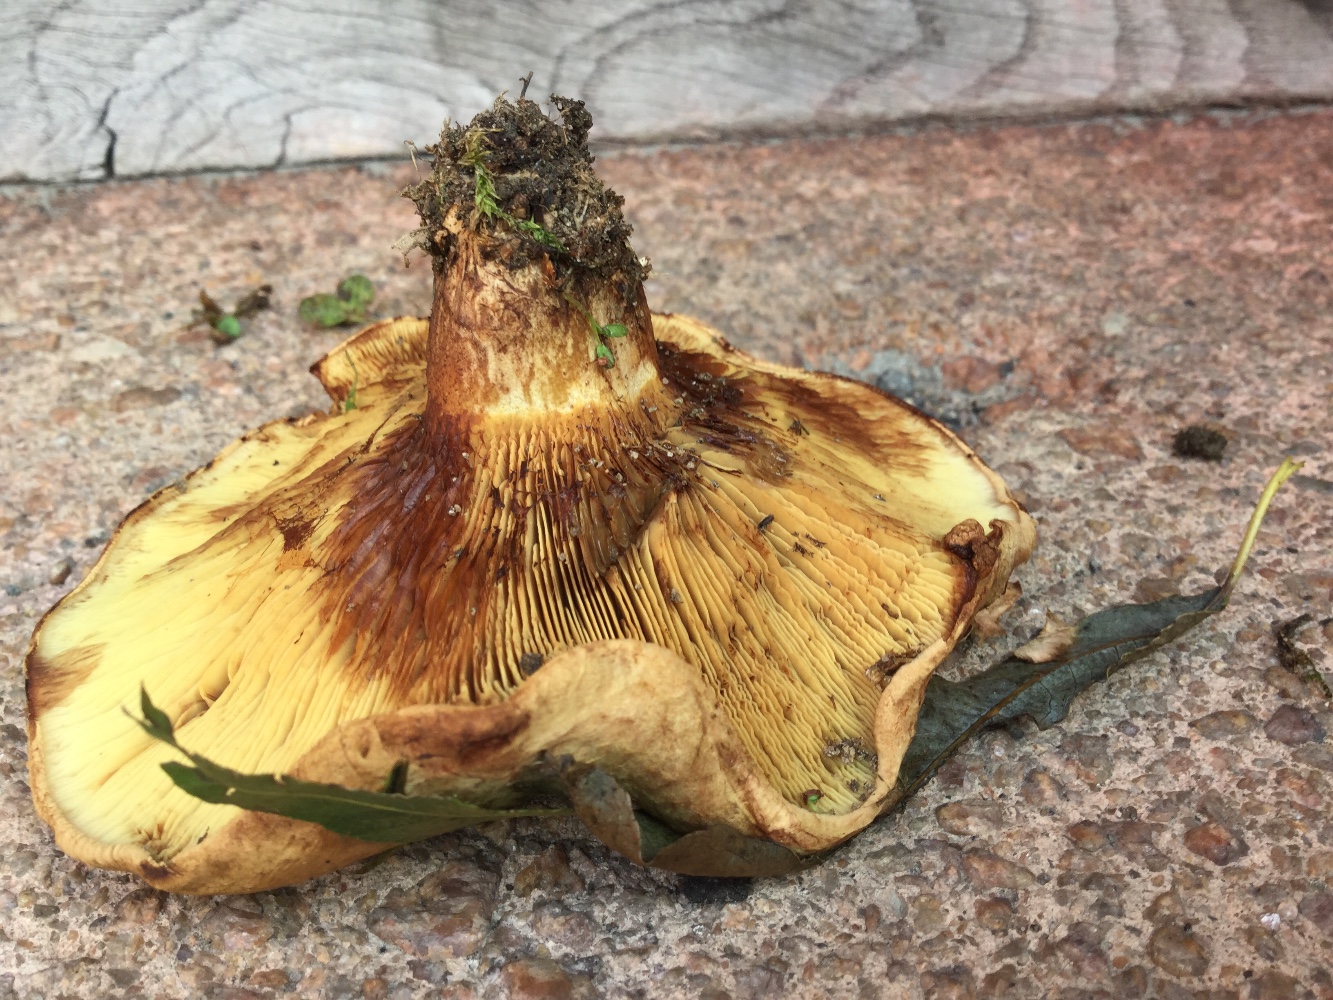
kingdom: Fungi
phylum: Basidiomycota
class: Agaricomycetes
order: Boletales
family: Paxillaceae
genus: Paxillus
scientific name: Paxillus ammoniavirescens
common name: olivensporet netbladhat
